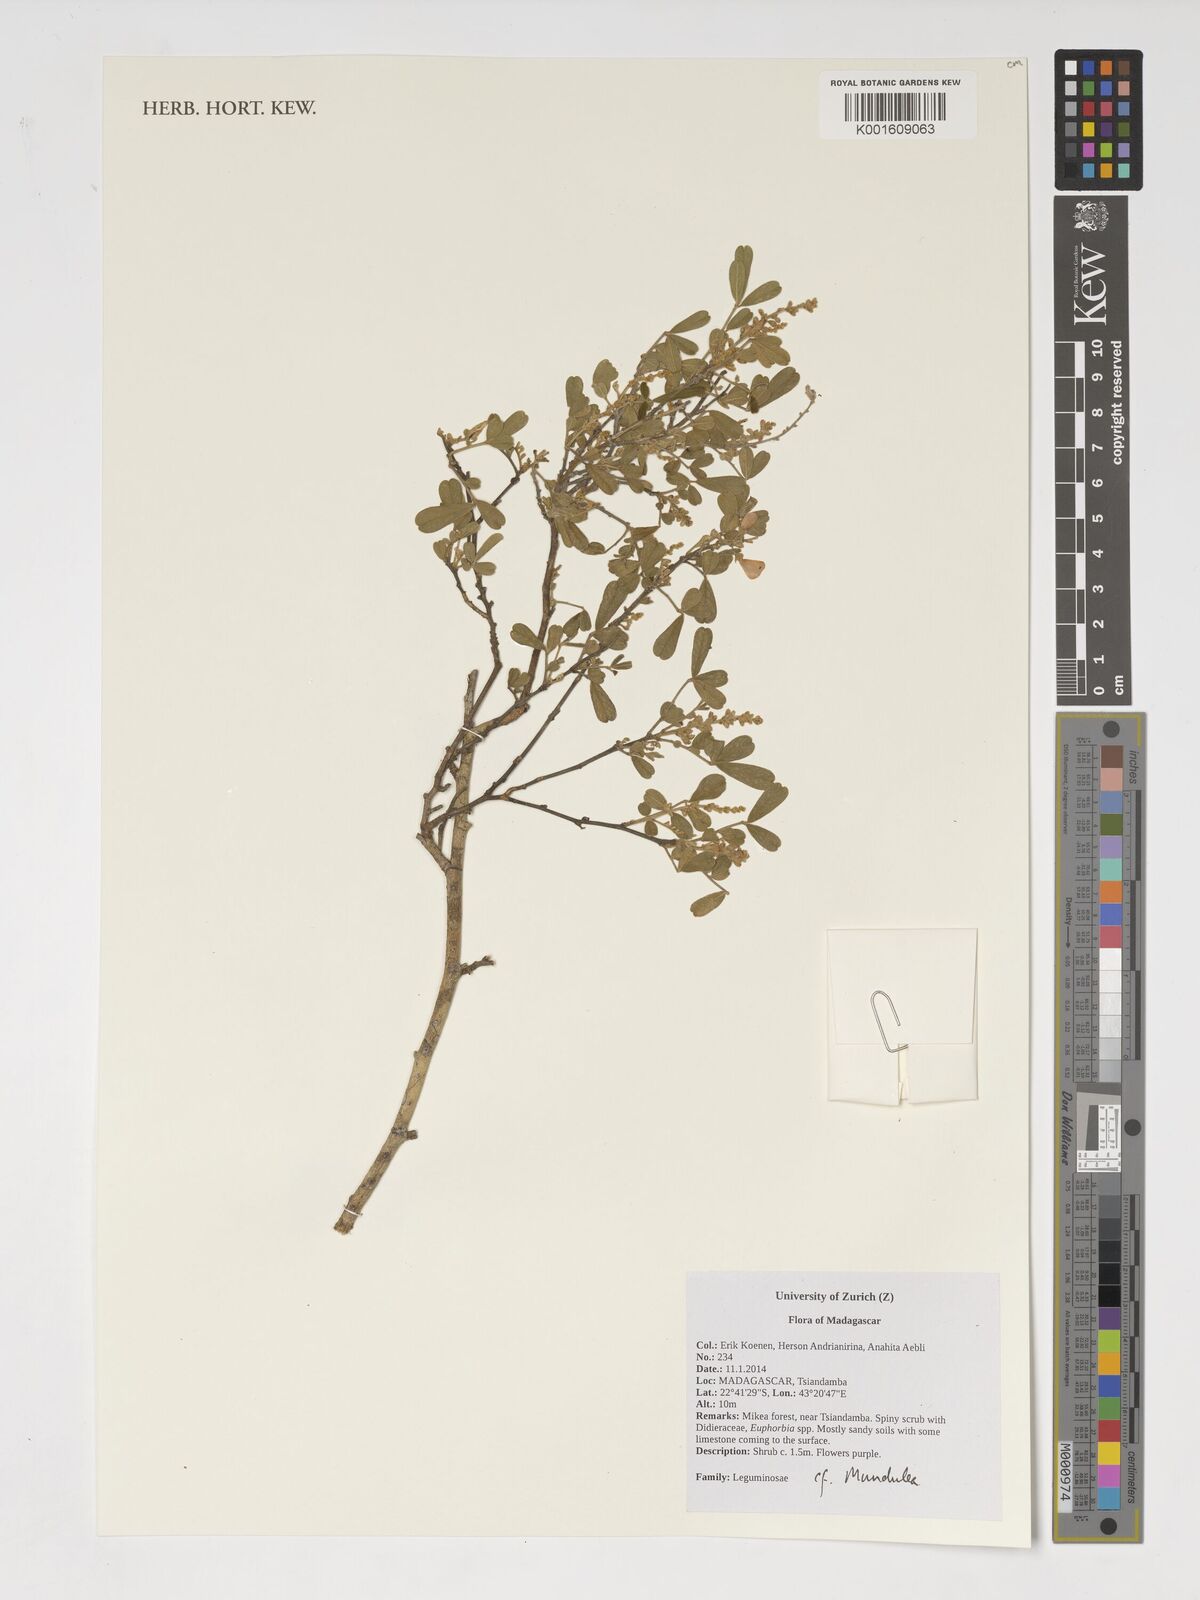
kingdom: Plantae
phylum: Tracheophyta
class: Magnoliopsida
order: Fabales
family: Fabaceae
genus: Mundulea
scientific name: Mundulea
